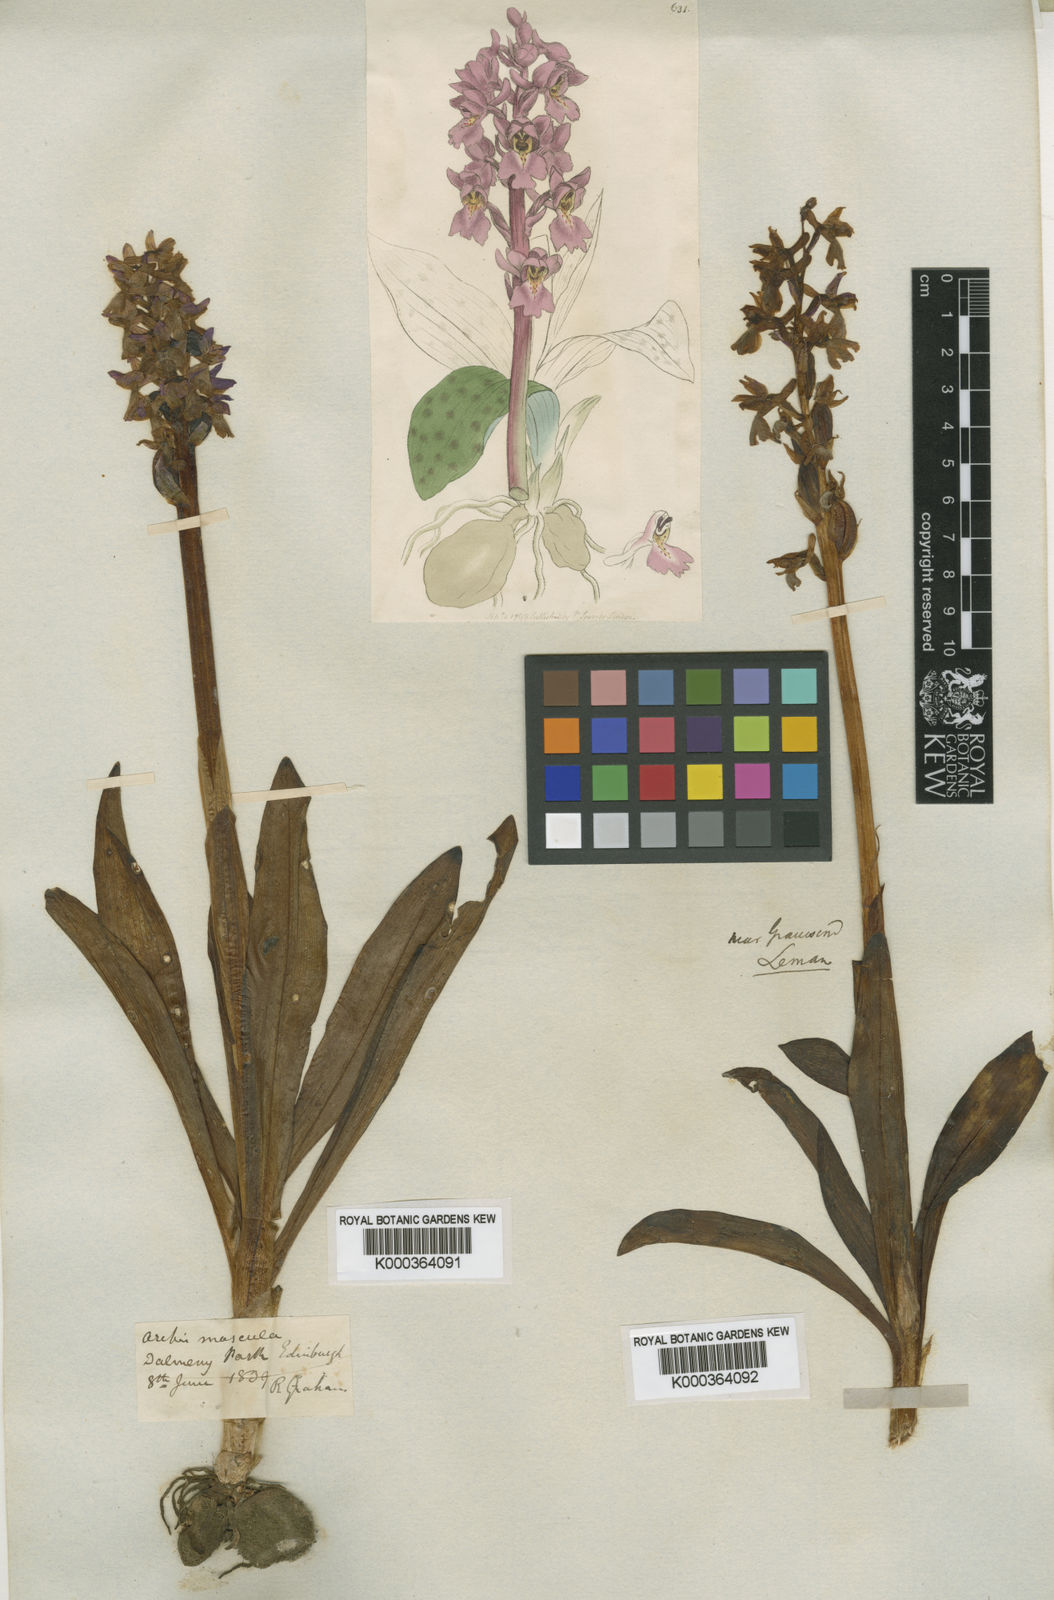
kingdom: Plantae
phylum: Tracheophyta
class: Liliopsida
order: Asparagales
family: Orchidaceae
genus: Orchis
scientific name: Orchis mascula
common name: Early-purple orchid
